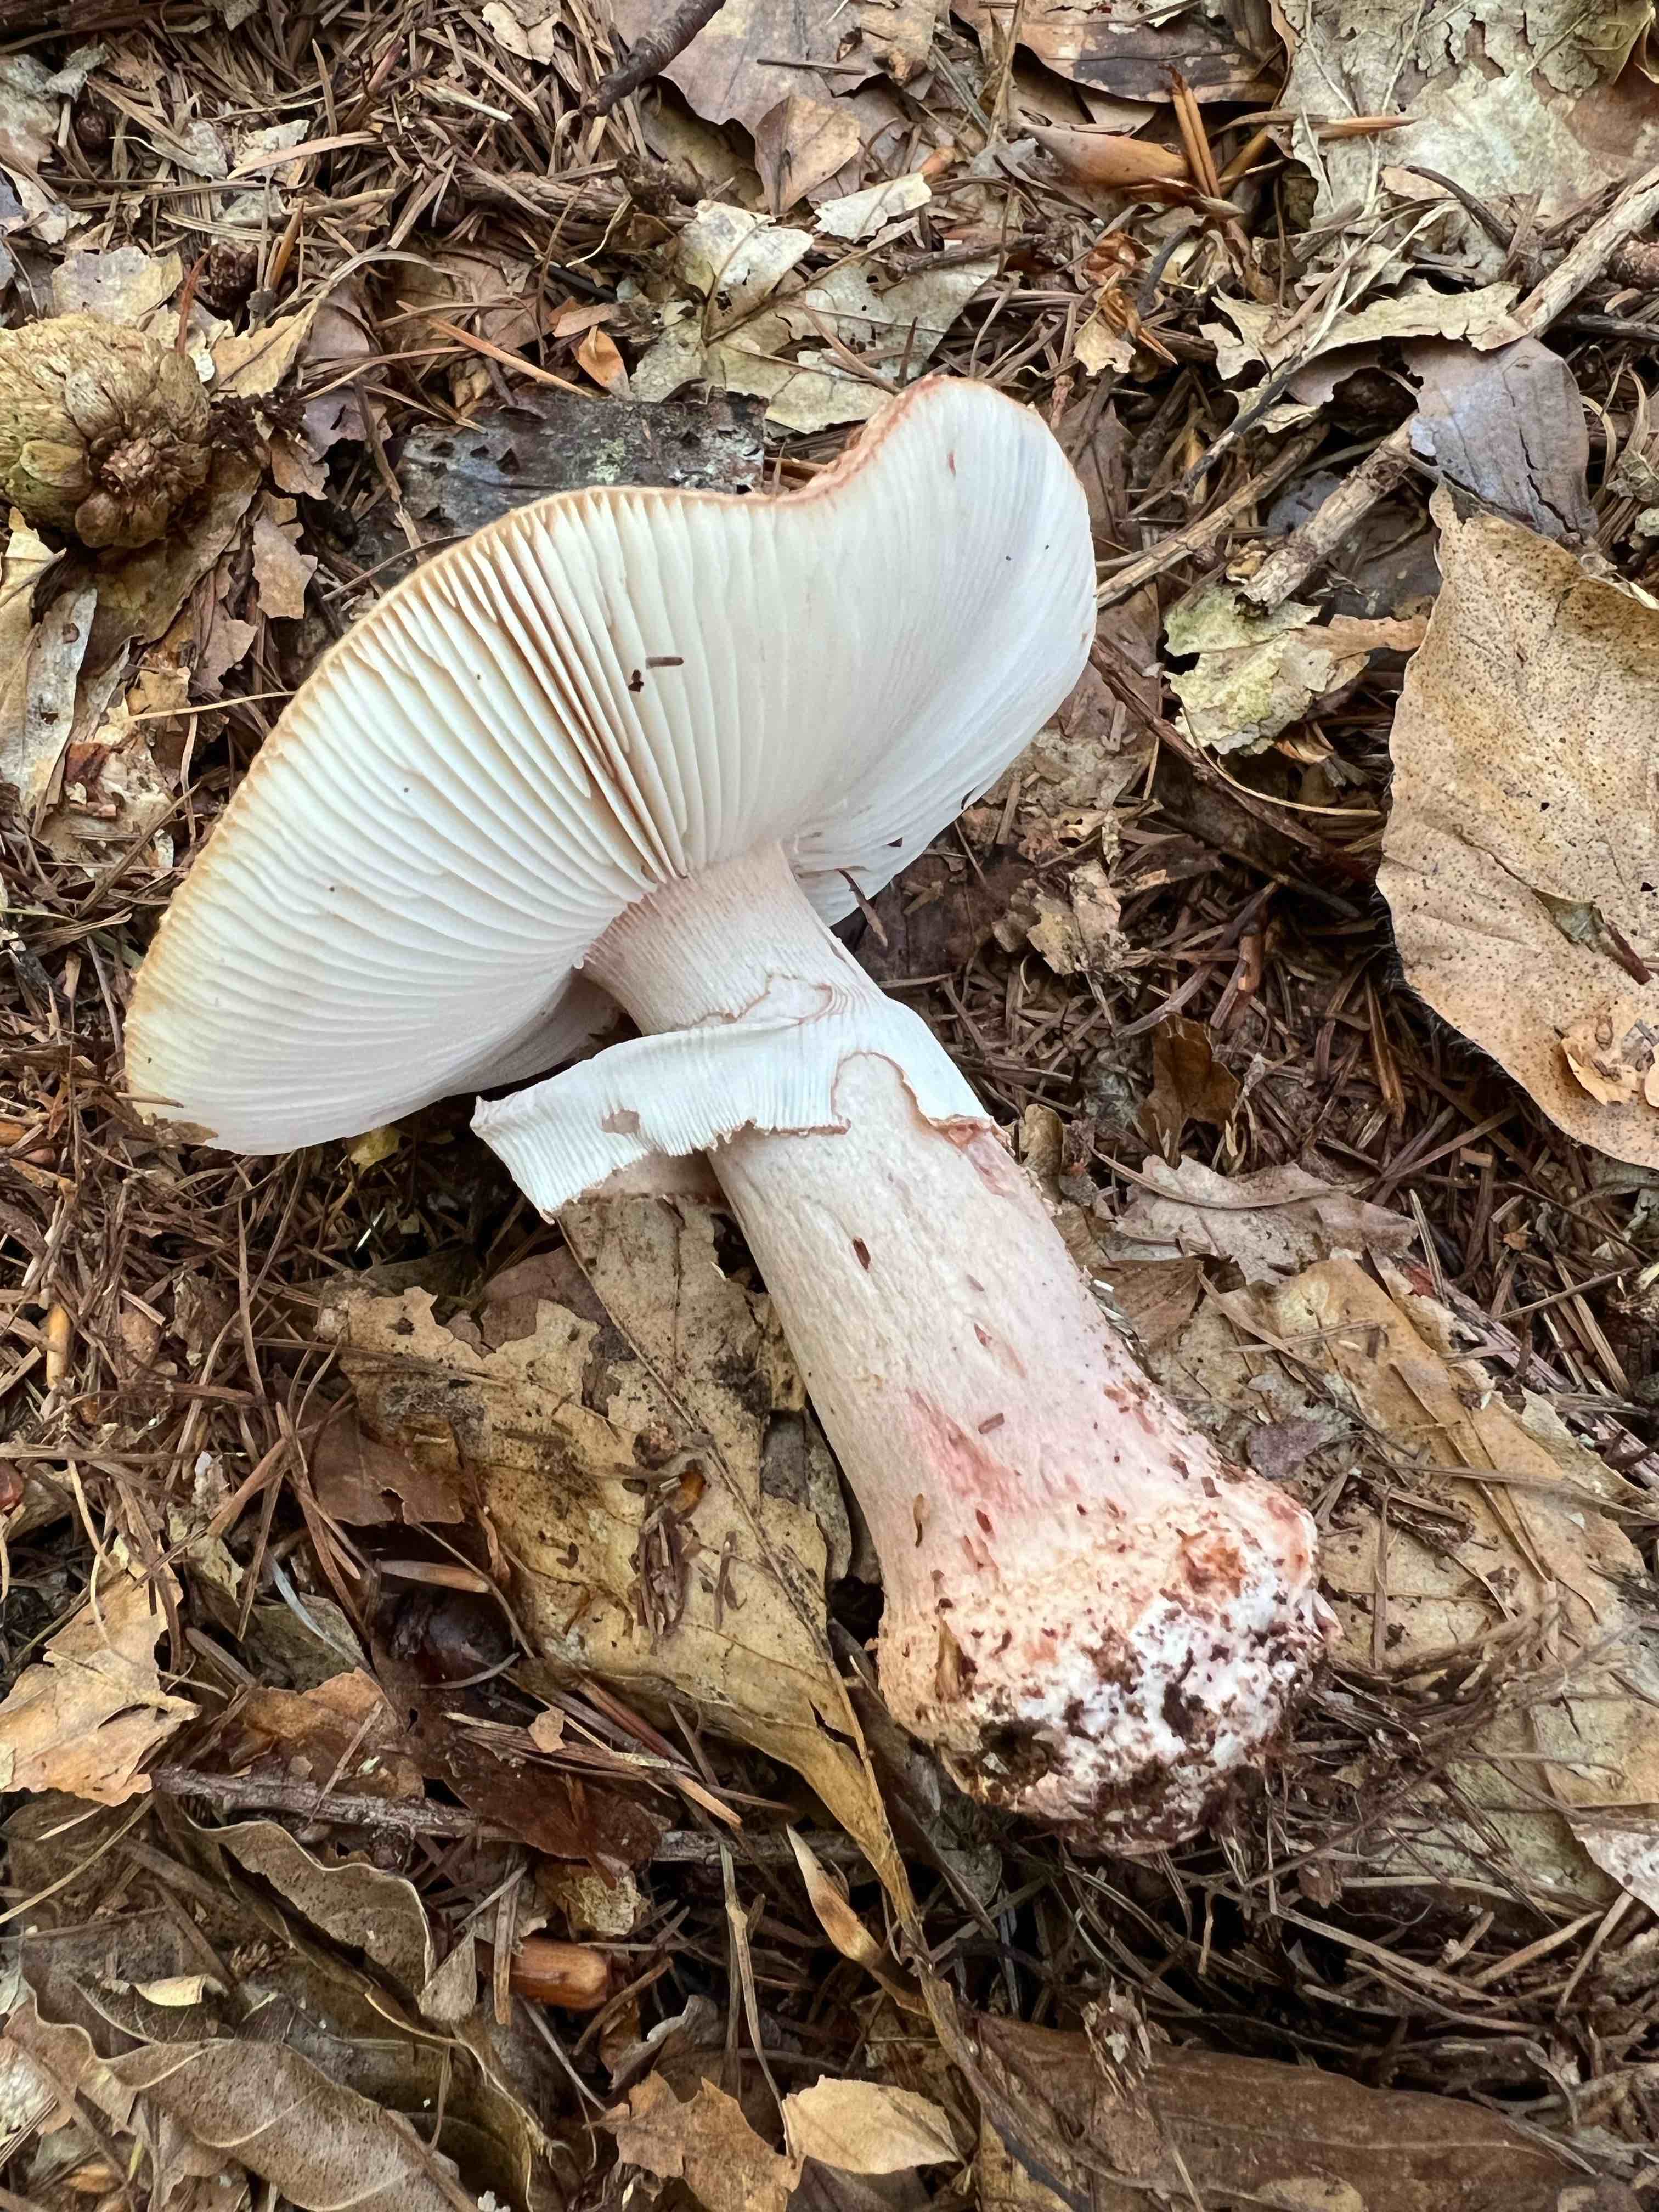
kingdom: Fungi
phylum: Basidiomycota
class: Agaricomycetes
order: Agaricales
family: Amanitaceae
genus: Amanita
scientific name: Amanita rubescens
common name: rødmende fluesvamp
